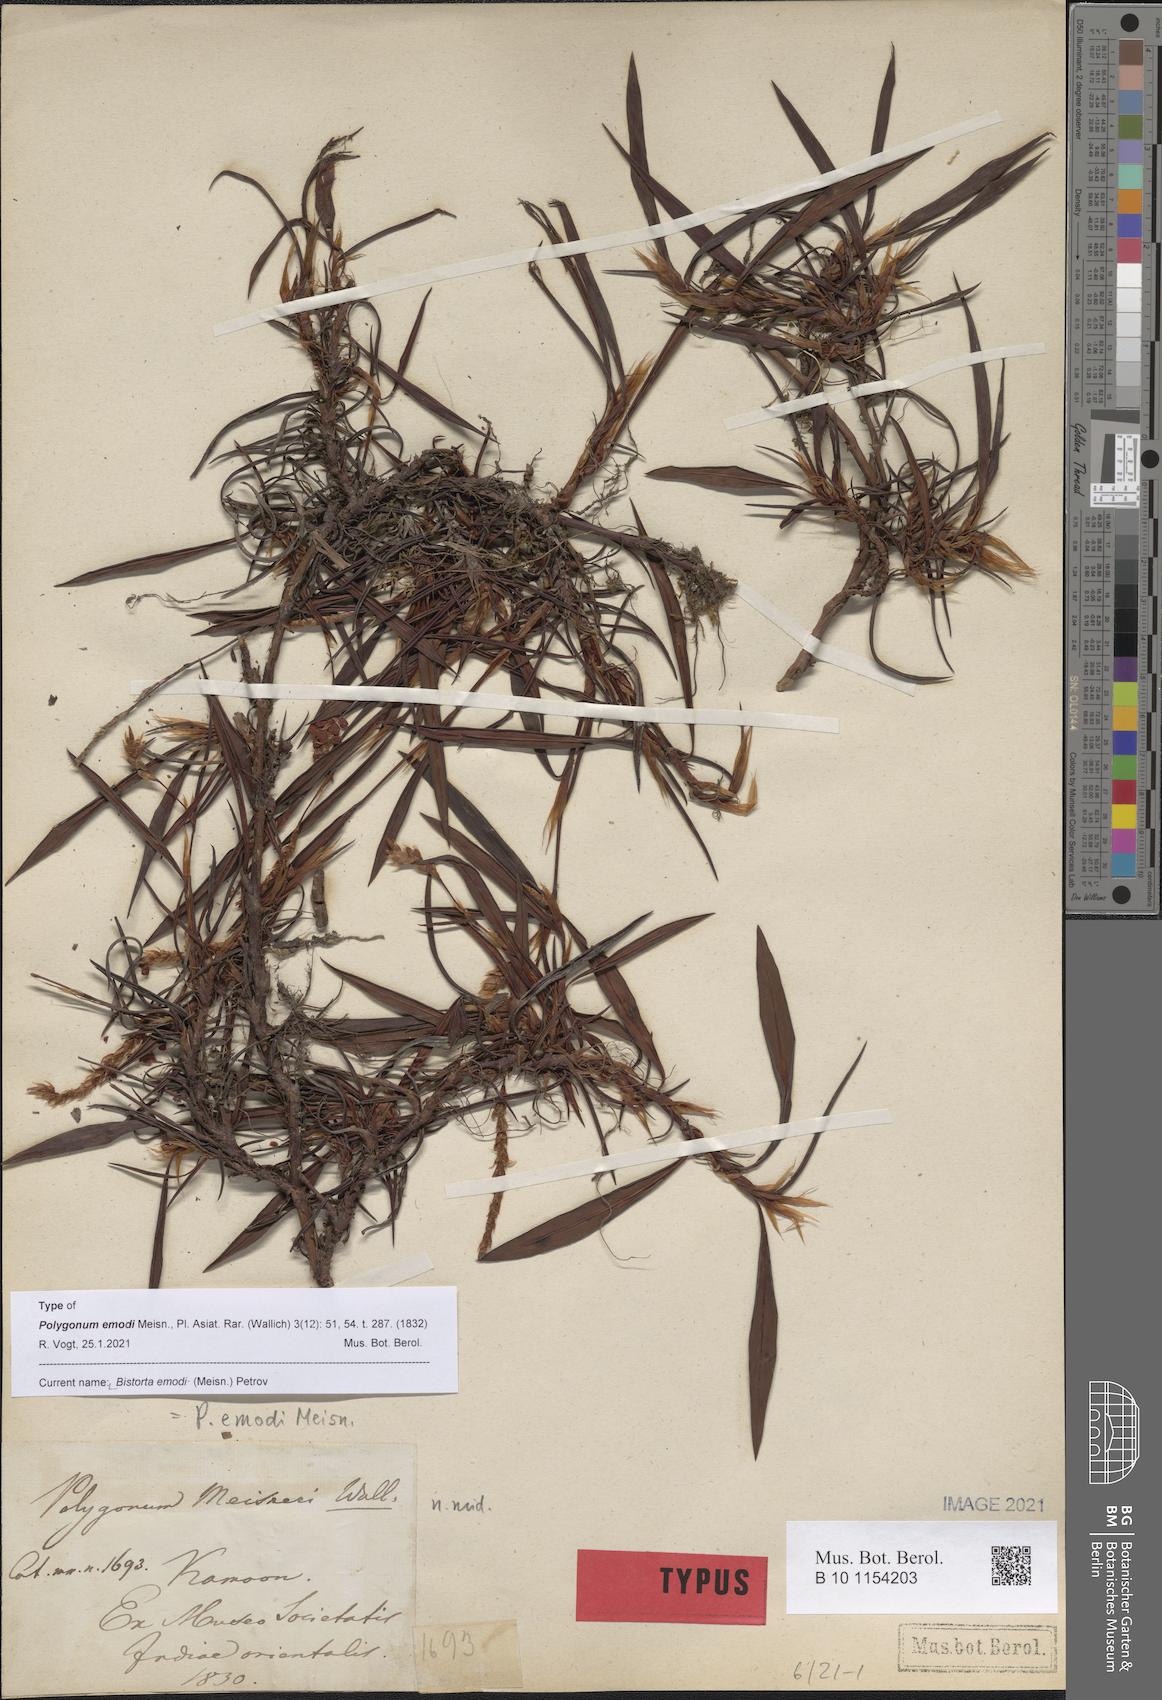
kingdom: Plantae
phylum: Tracheophyta
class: Magnoliopsida
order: Caryophyllales
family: Polygonaceae
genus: Bistorta
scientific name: Bistorta emodi
